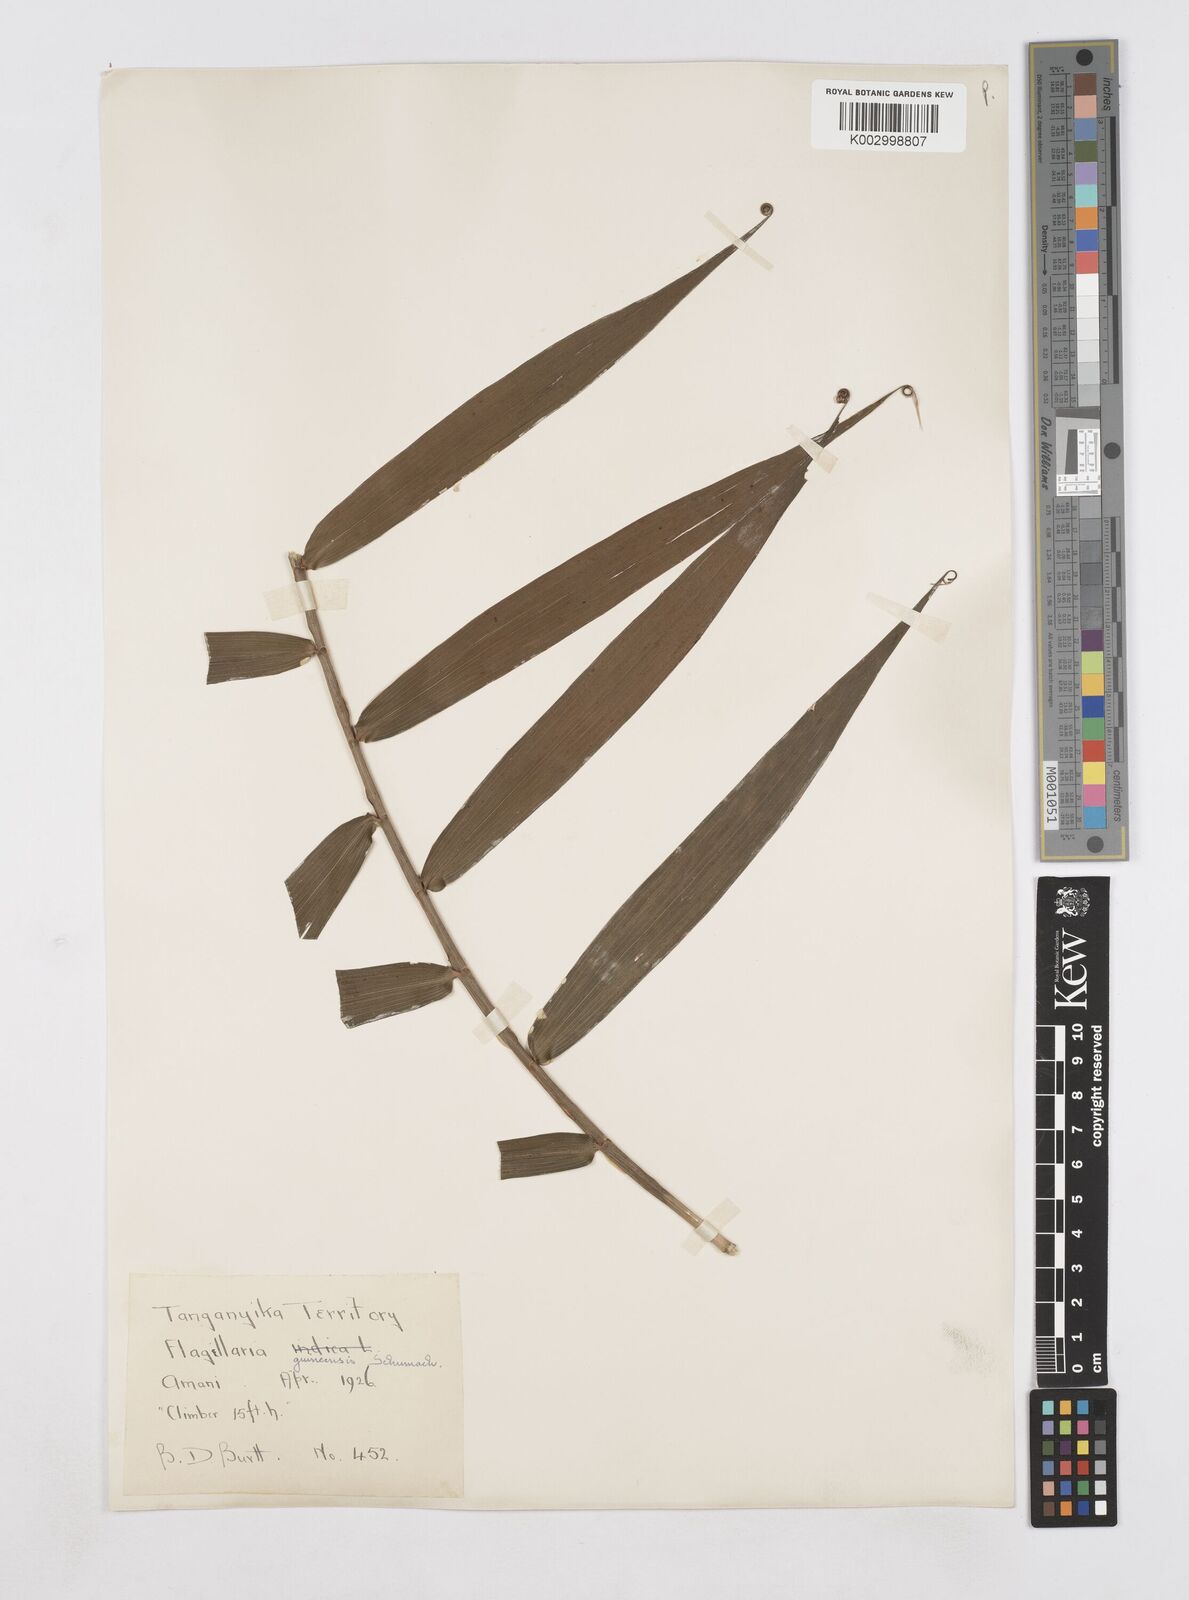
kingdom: Plantae
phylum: Tracheophyta
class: Liliopsida
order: Poales
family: Flagellariaceae
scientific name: Flagellariaceae
